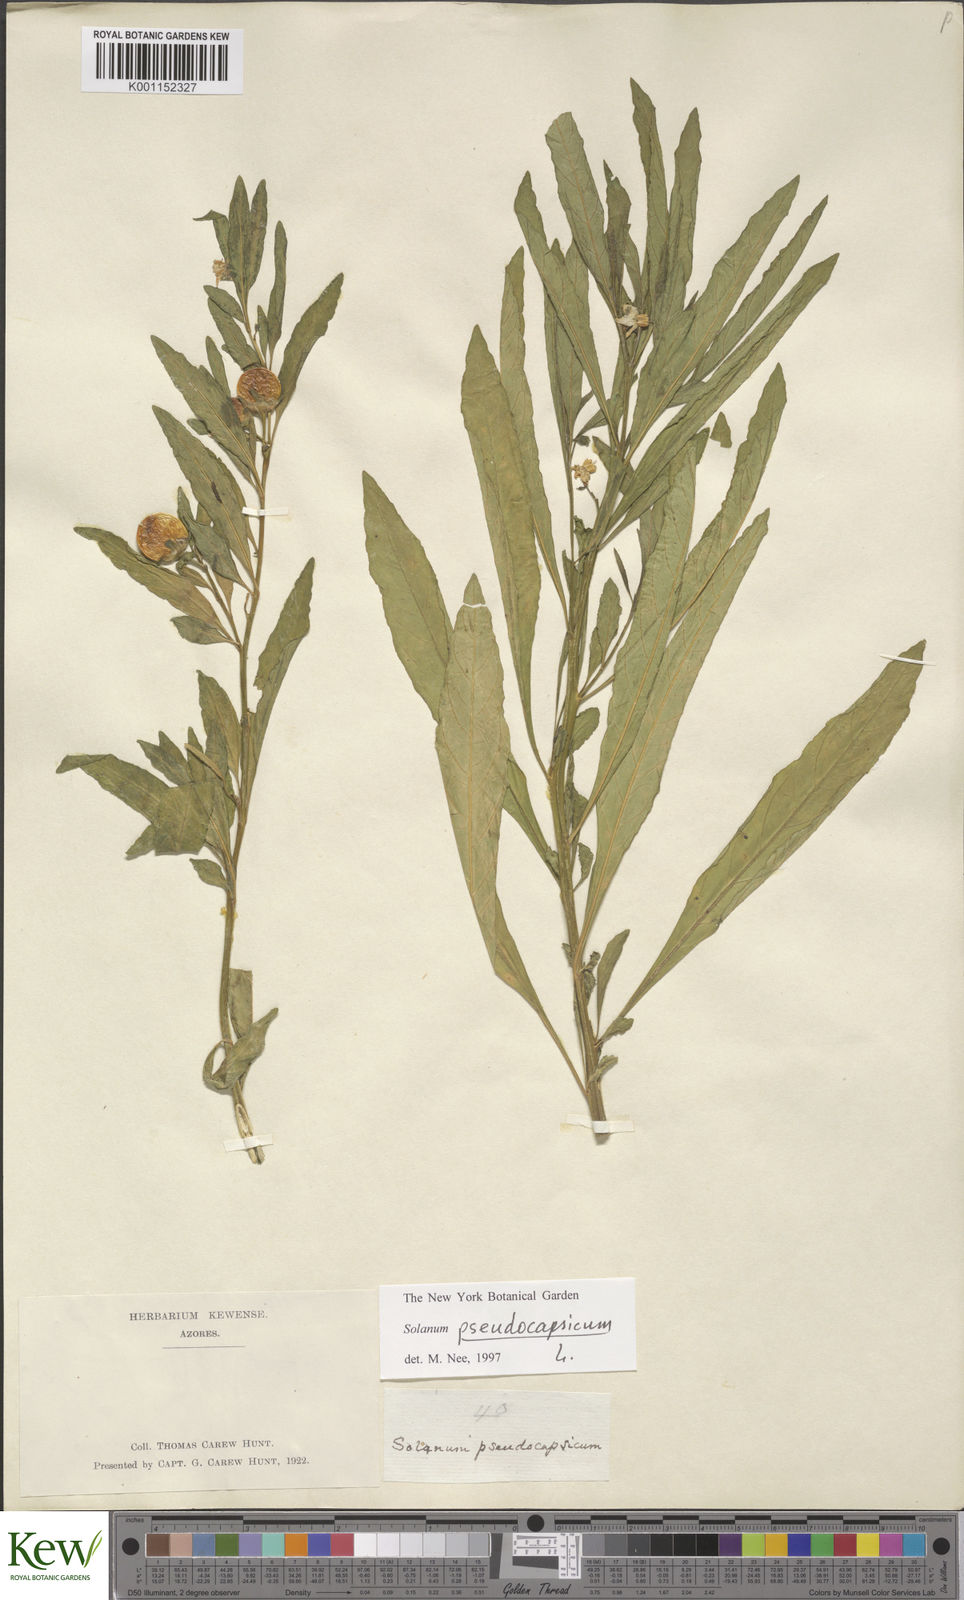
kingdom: Plantae
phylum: Tracheophyta
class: Magnoliopsida
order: Solanales
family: Solanaceae
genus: Solanum
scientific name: Solanum pseudocapsicum
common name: Jerusalem cherry
